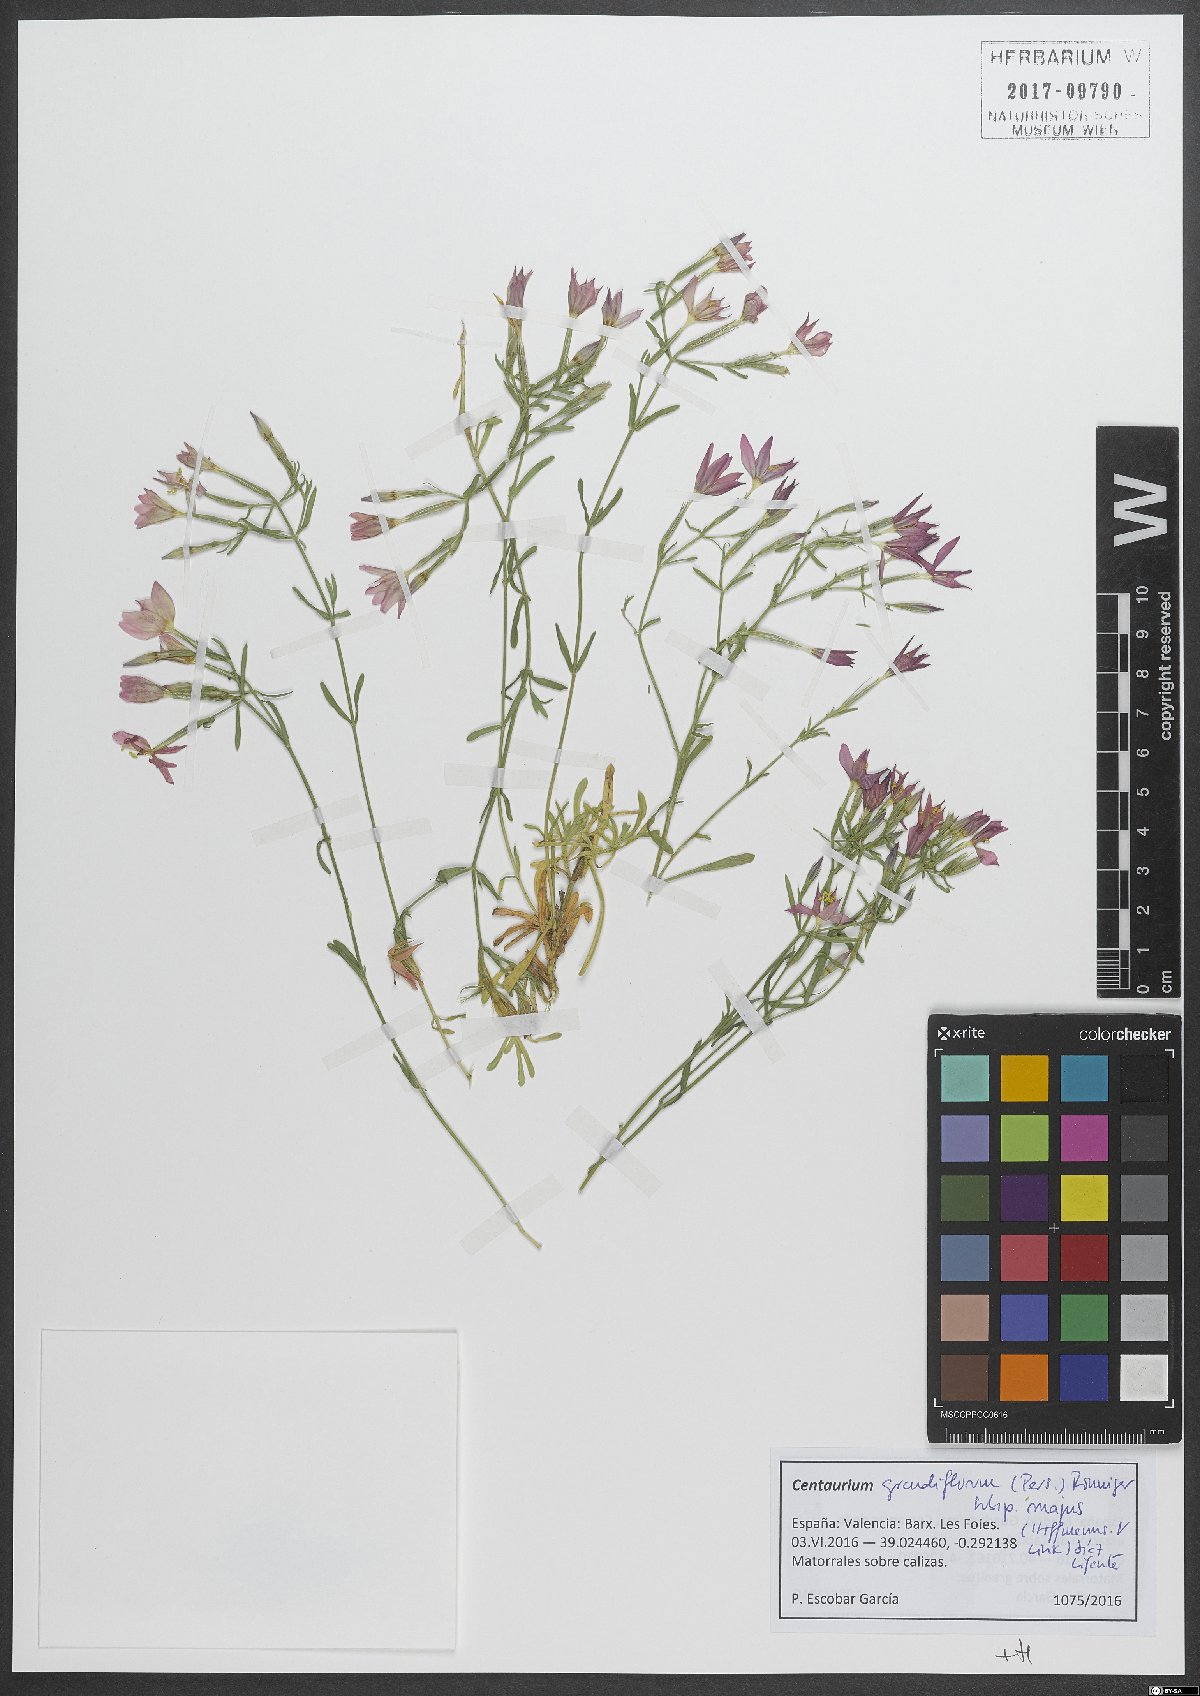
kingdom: Plantae
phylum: Tracheophyta
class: Magnoliopsida
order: Gentianales
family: Gentianaceae
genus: Centaurium
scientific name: Centaurium grandiflorum
